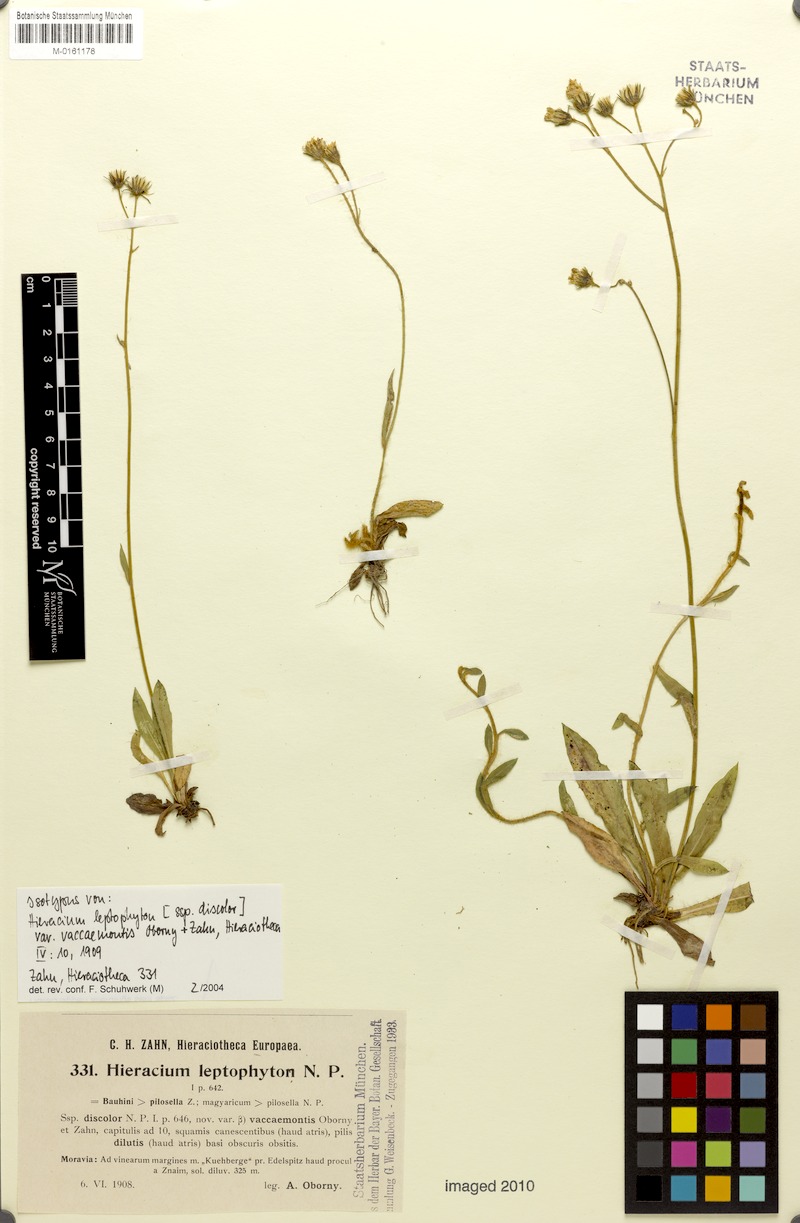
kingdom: Plantae
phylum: Tracheophyta
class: Magnoliopsida
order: Asterales
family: Asteraceae
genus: Pilosella
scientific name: Pilosella leptophyton
